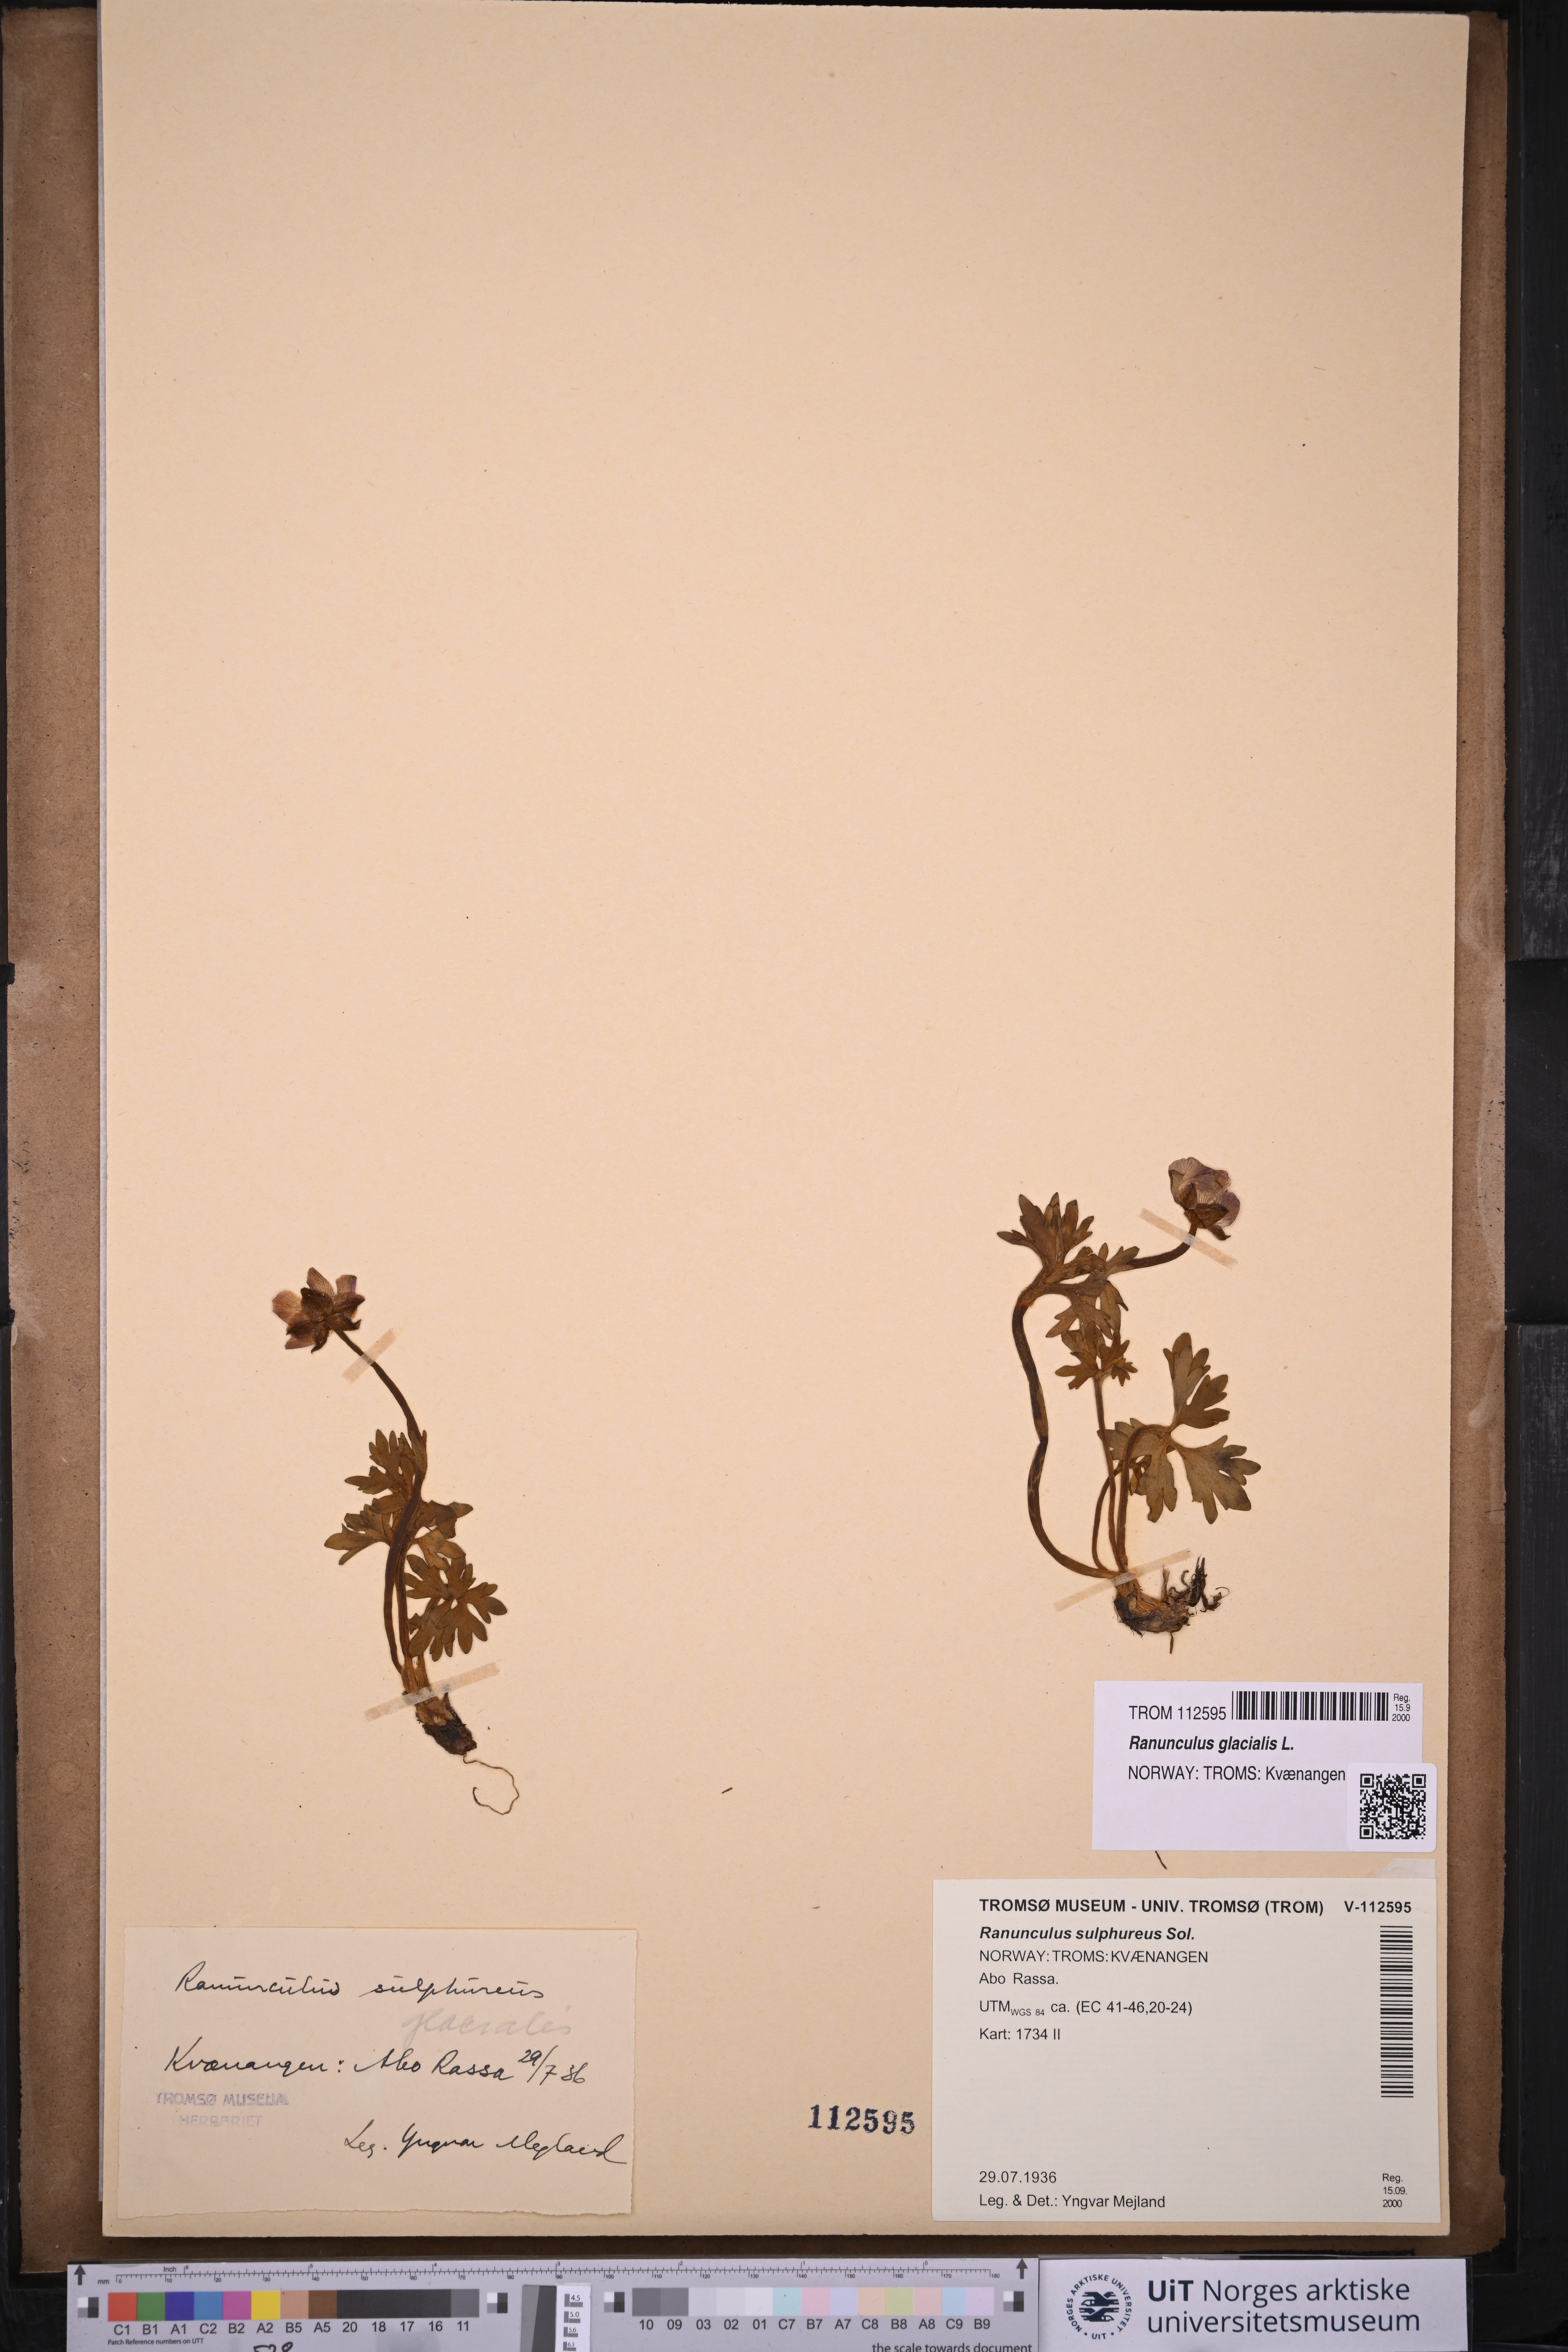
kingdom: Plantae
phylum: Tracheophyta
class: Magnoliopsida
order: Ranunculales
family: Ranunculaceae
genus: Ranunculus
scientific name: Ranunculus glacialis
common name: Glacier buttercup
